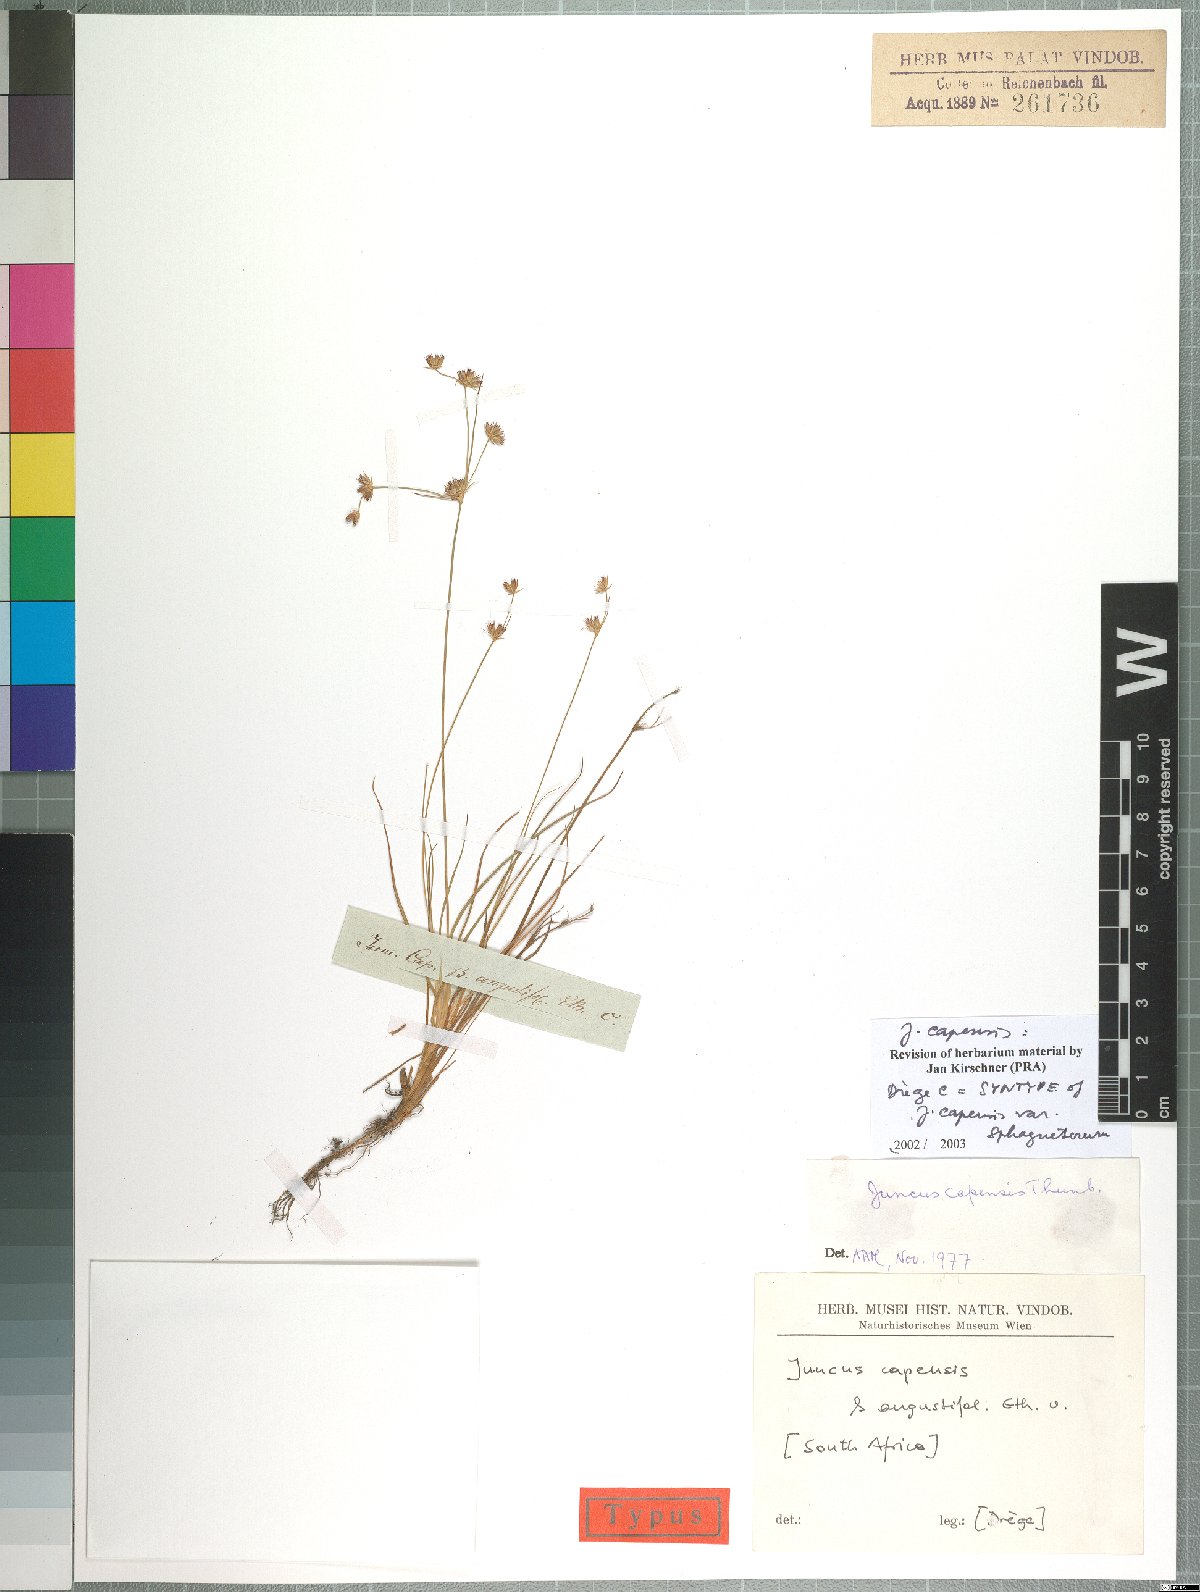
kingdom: Plantae
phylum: Tracheophyta
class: Liliopsida
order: Poales
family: Juncaceae
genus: Juncus
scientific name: Juncus capensis
